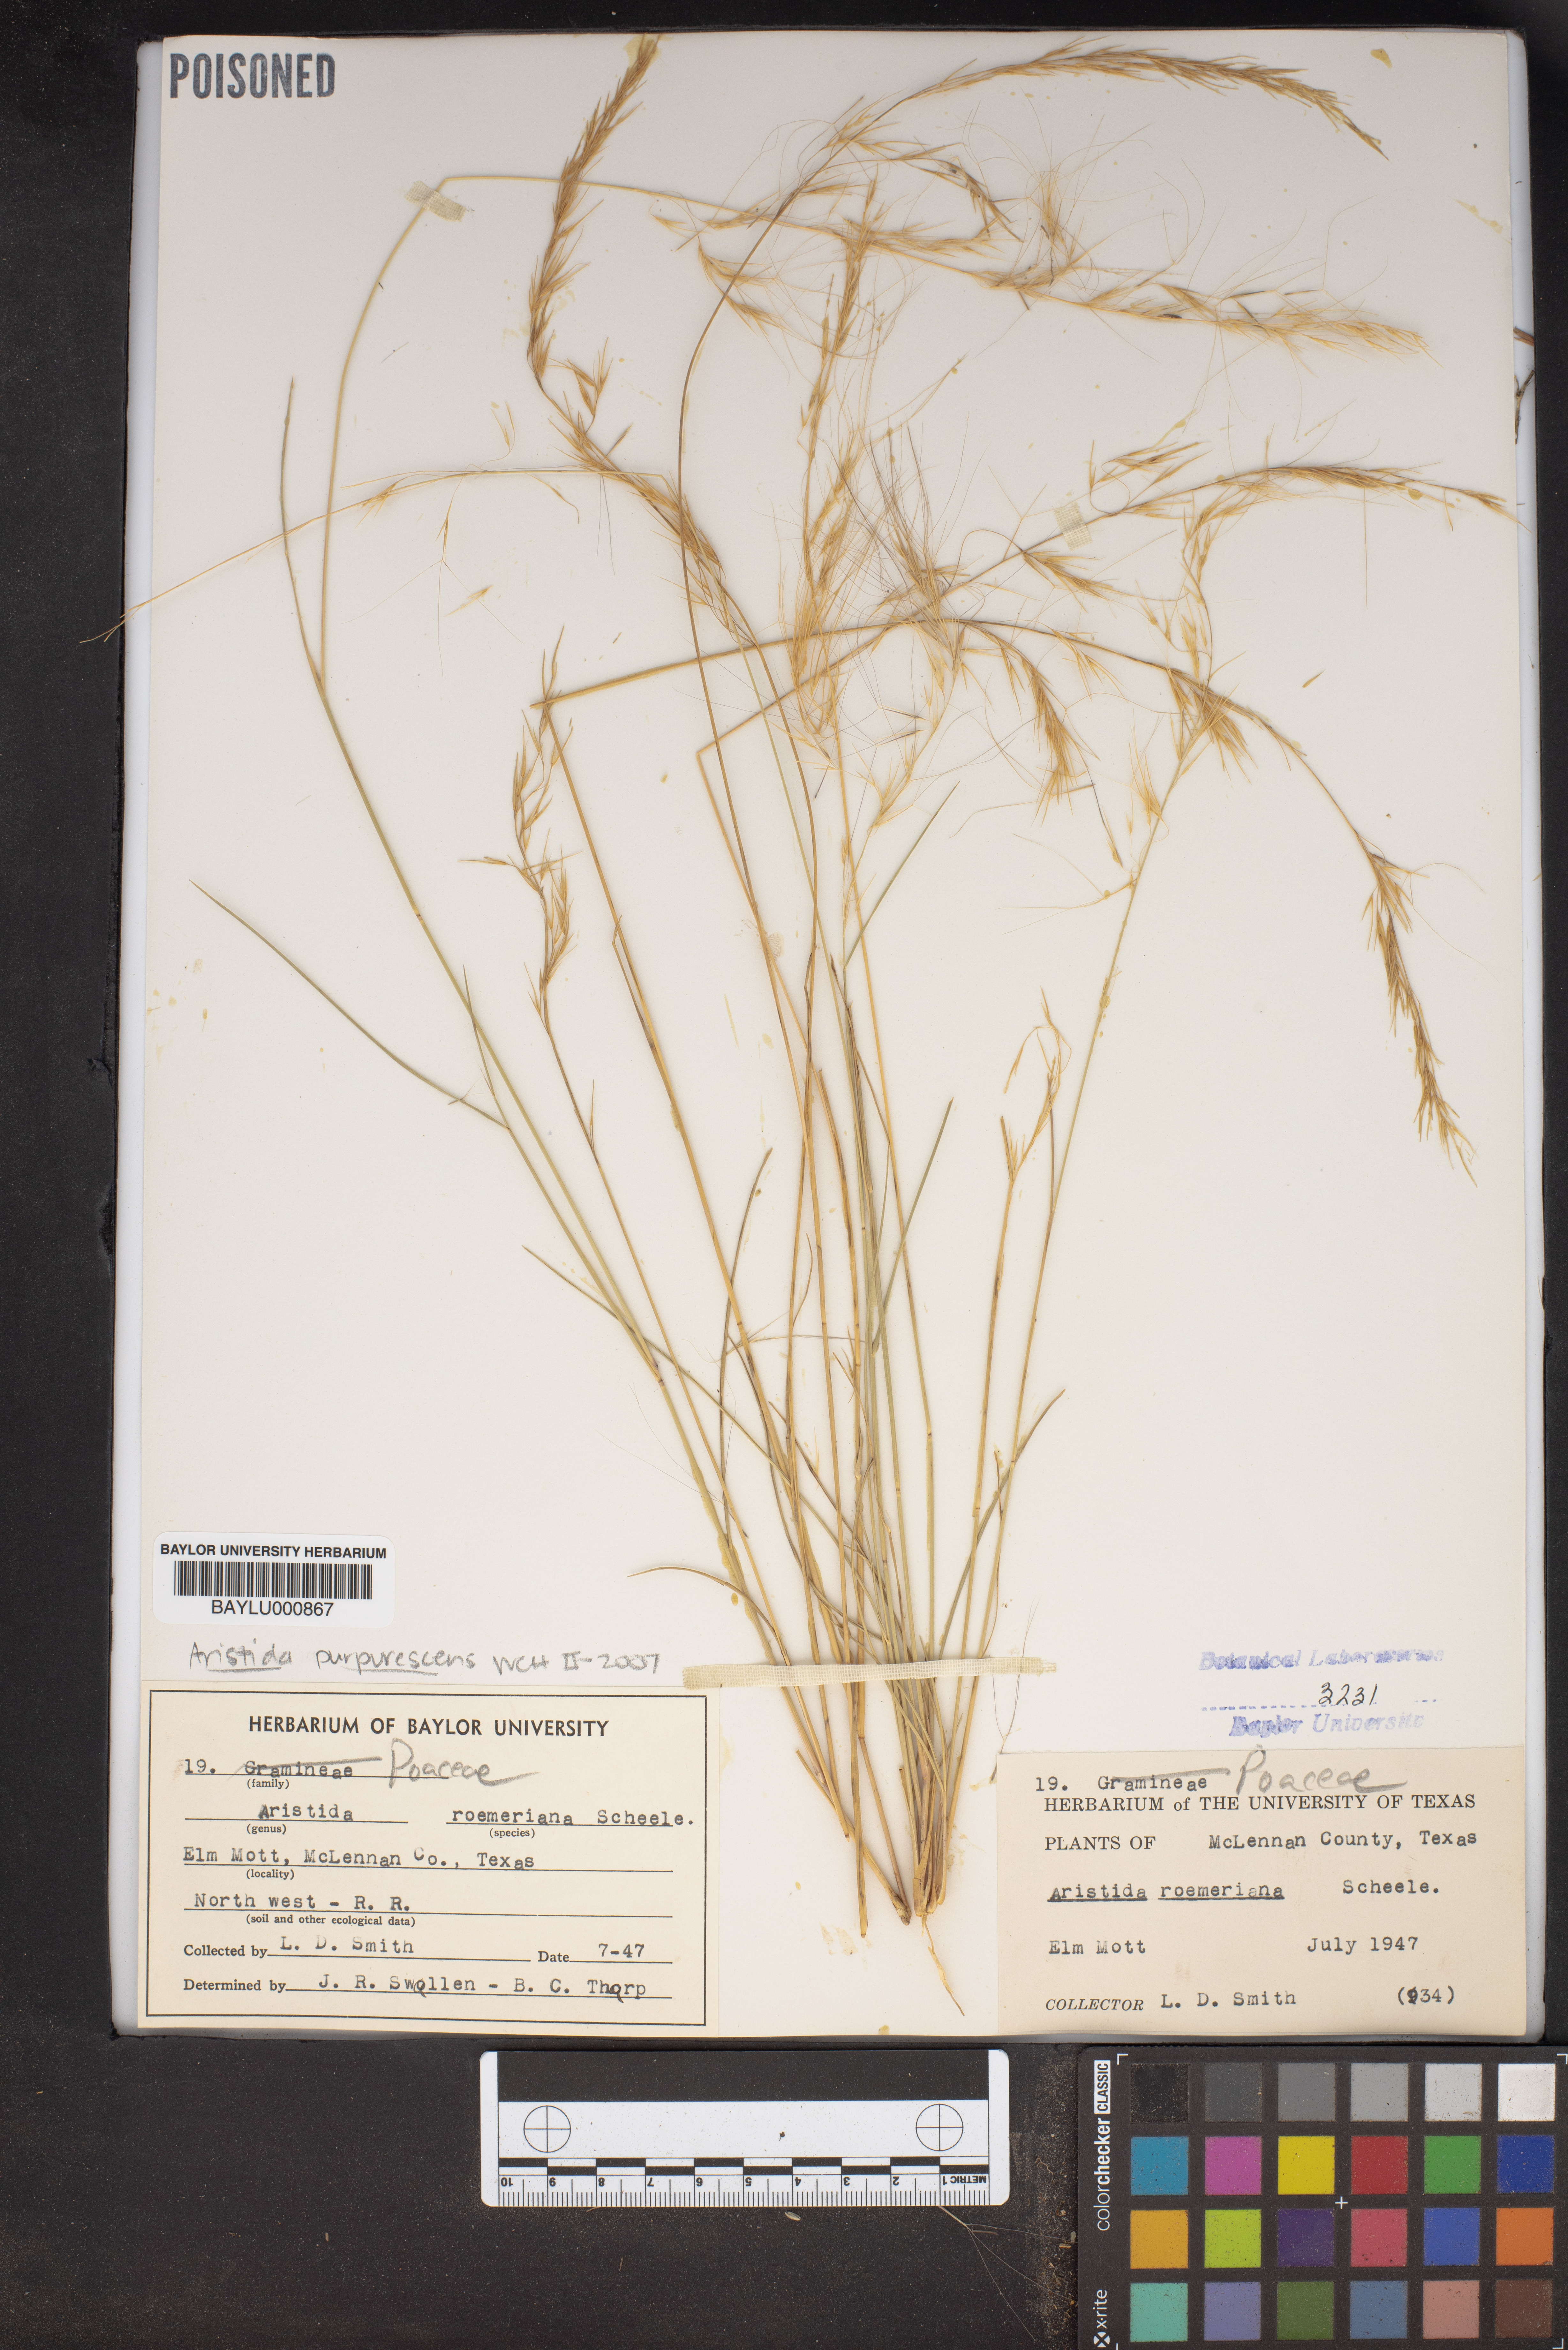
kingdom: Plantae
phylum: Tracheophyta
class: Liliopsida
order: Poales
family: Poaceae
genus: Aristida
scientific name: Aristida purpurea
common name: Purple threeawn
